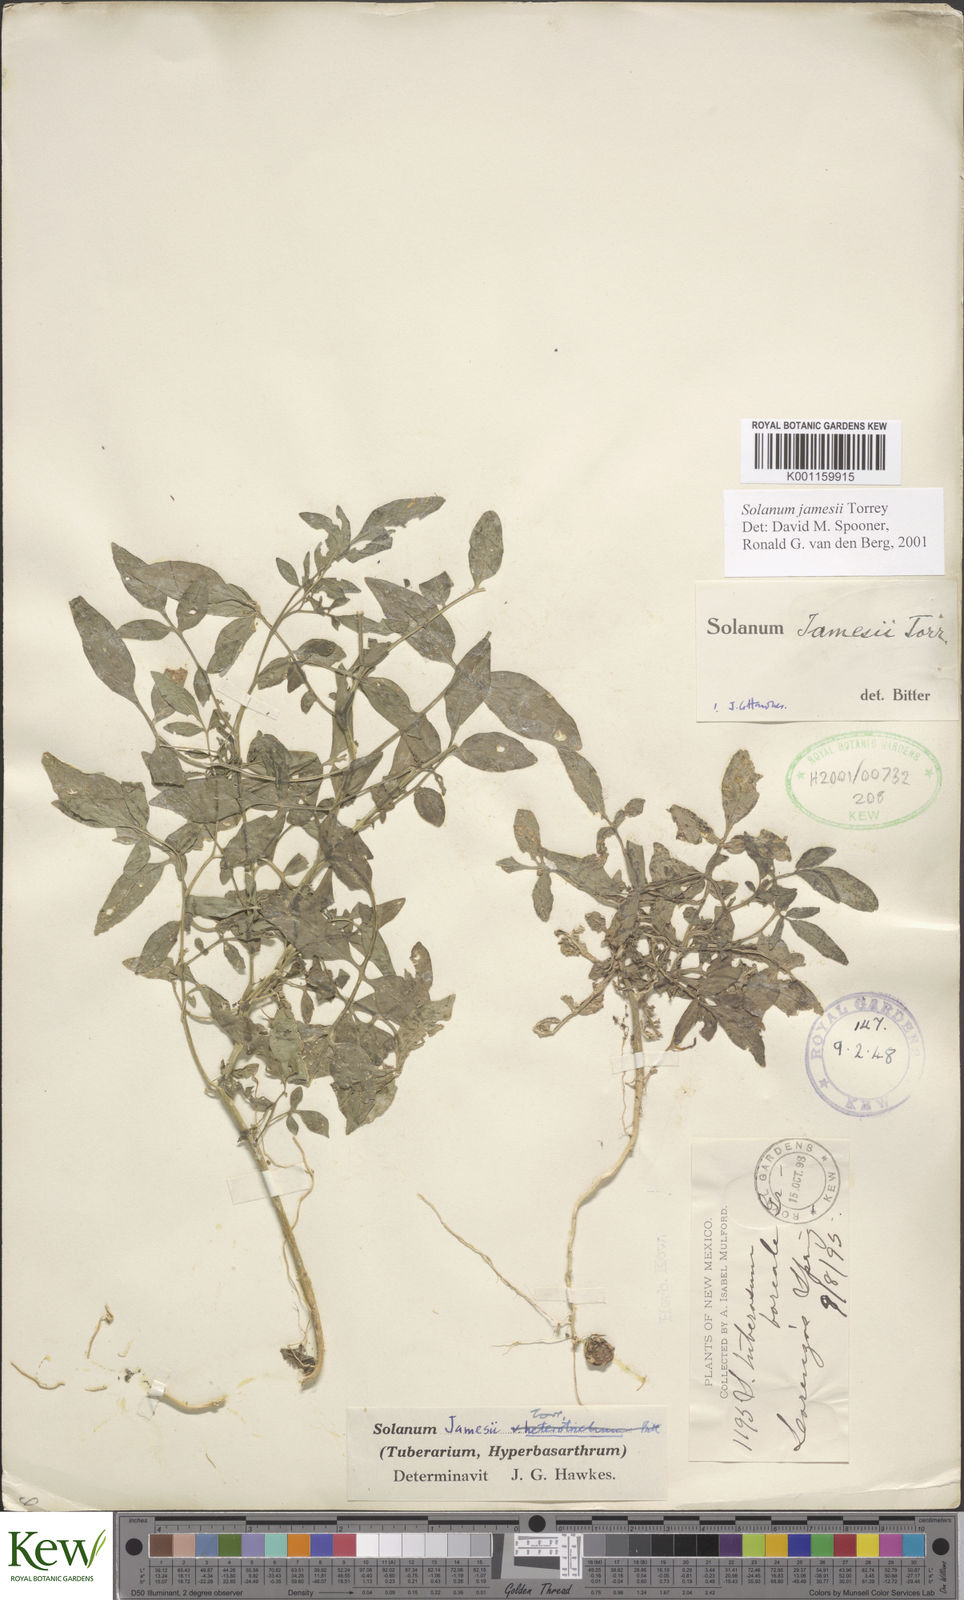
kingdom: Plantae
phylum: Tracheophyta
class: Magnoliopsida
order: Solanales
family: Solanaceae
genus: Solanum
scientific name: Solanum jamesii
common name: Wild potato
